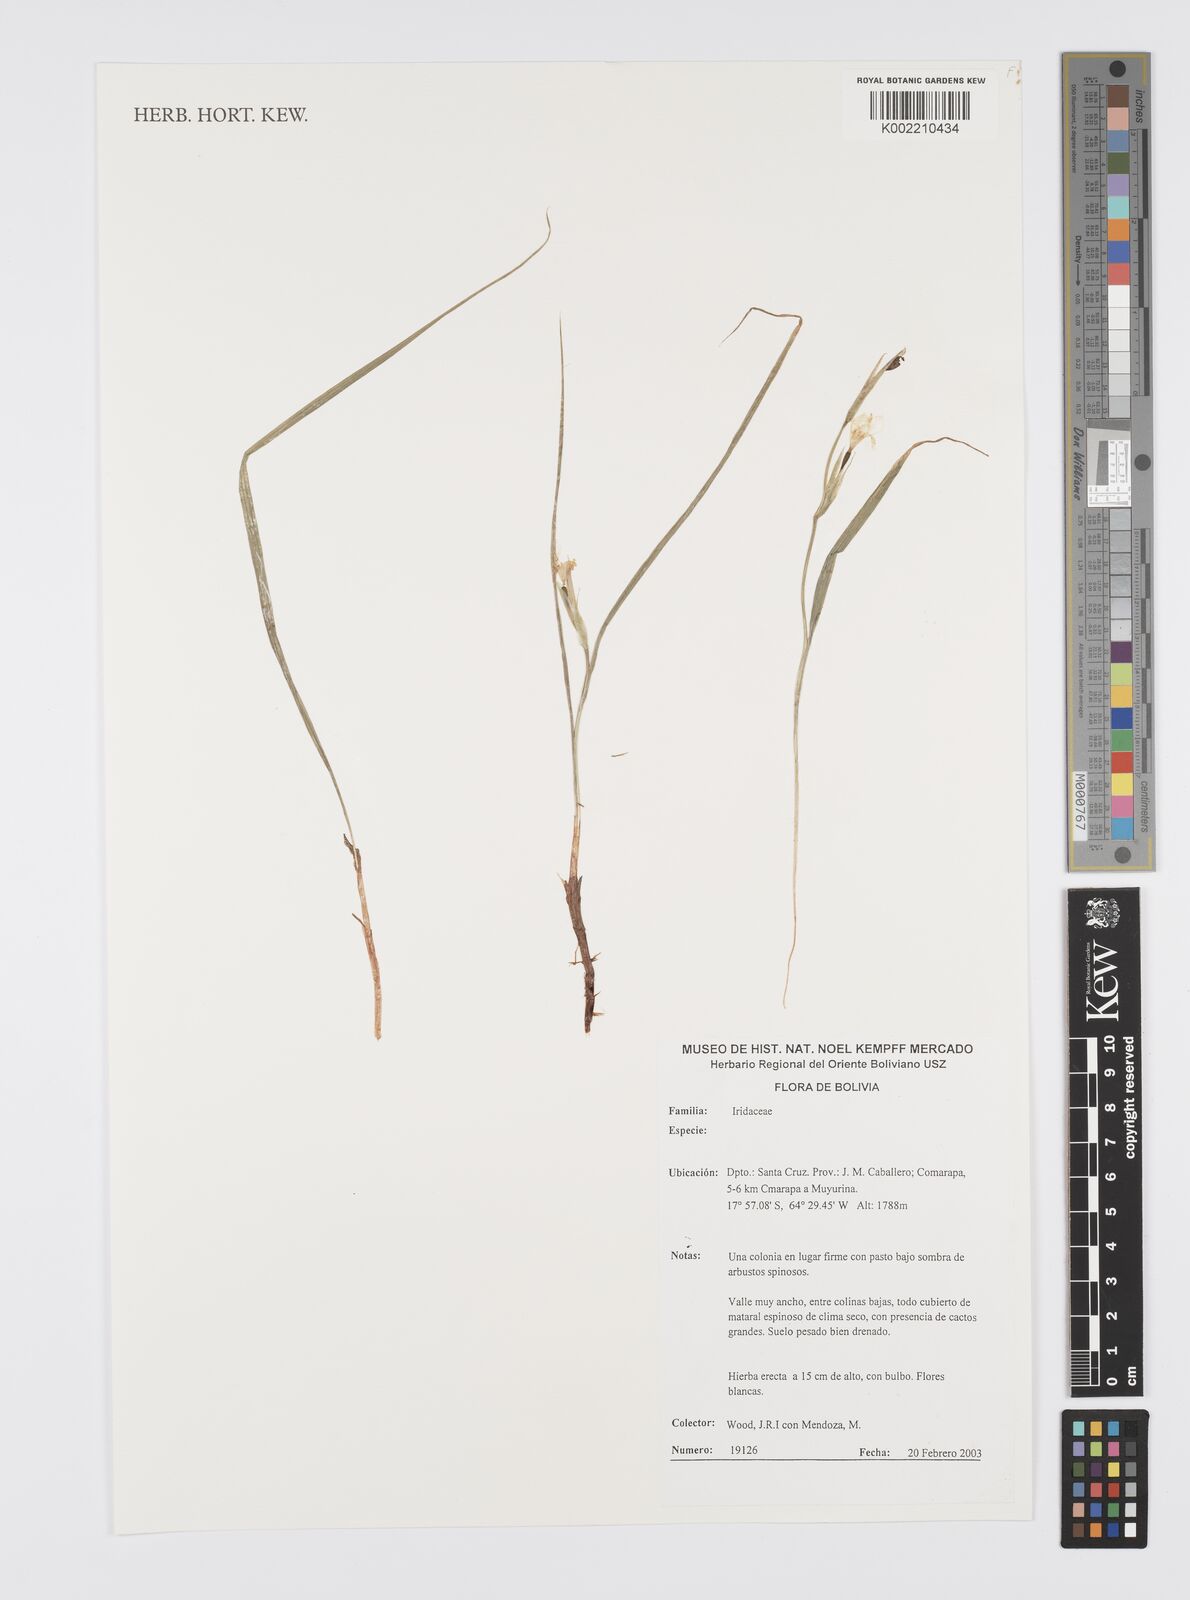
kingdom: Plantae
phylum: Tracheophyta
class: Liliopsida
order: Asparagales
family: Iridaceae
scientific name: Iridaceae
